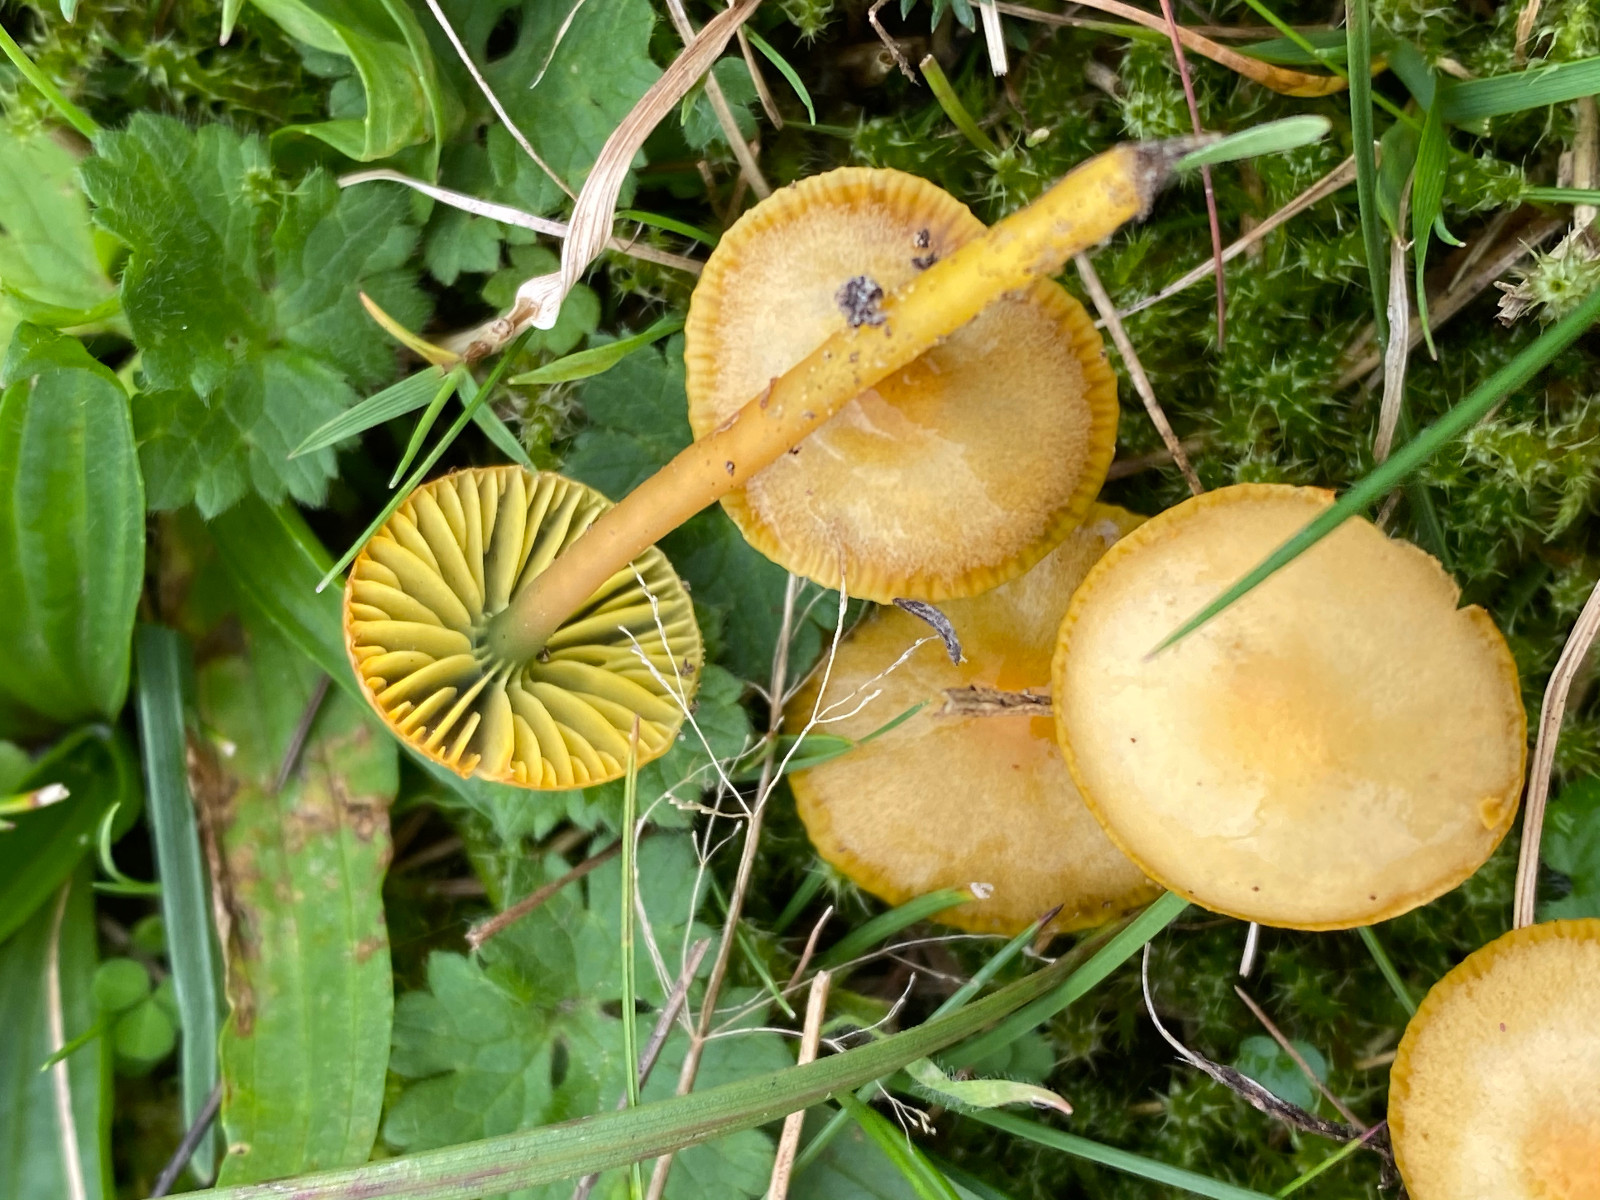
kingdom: Fungi
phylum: Basidiomycota
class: Agaricomycetes
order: Agaricales
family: Hygrophoraceae
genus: Gliophorus
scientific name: Gliophorus psittacinus
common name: papegøje-vokshat
